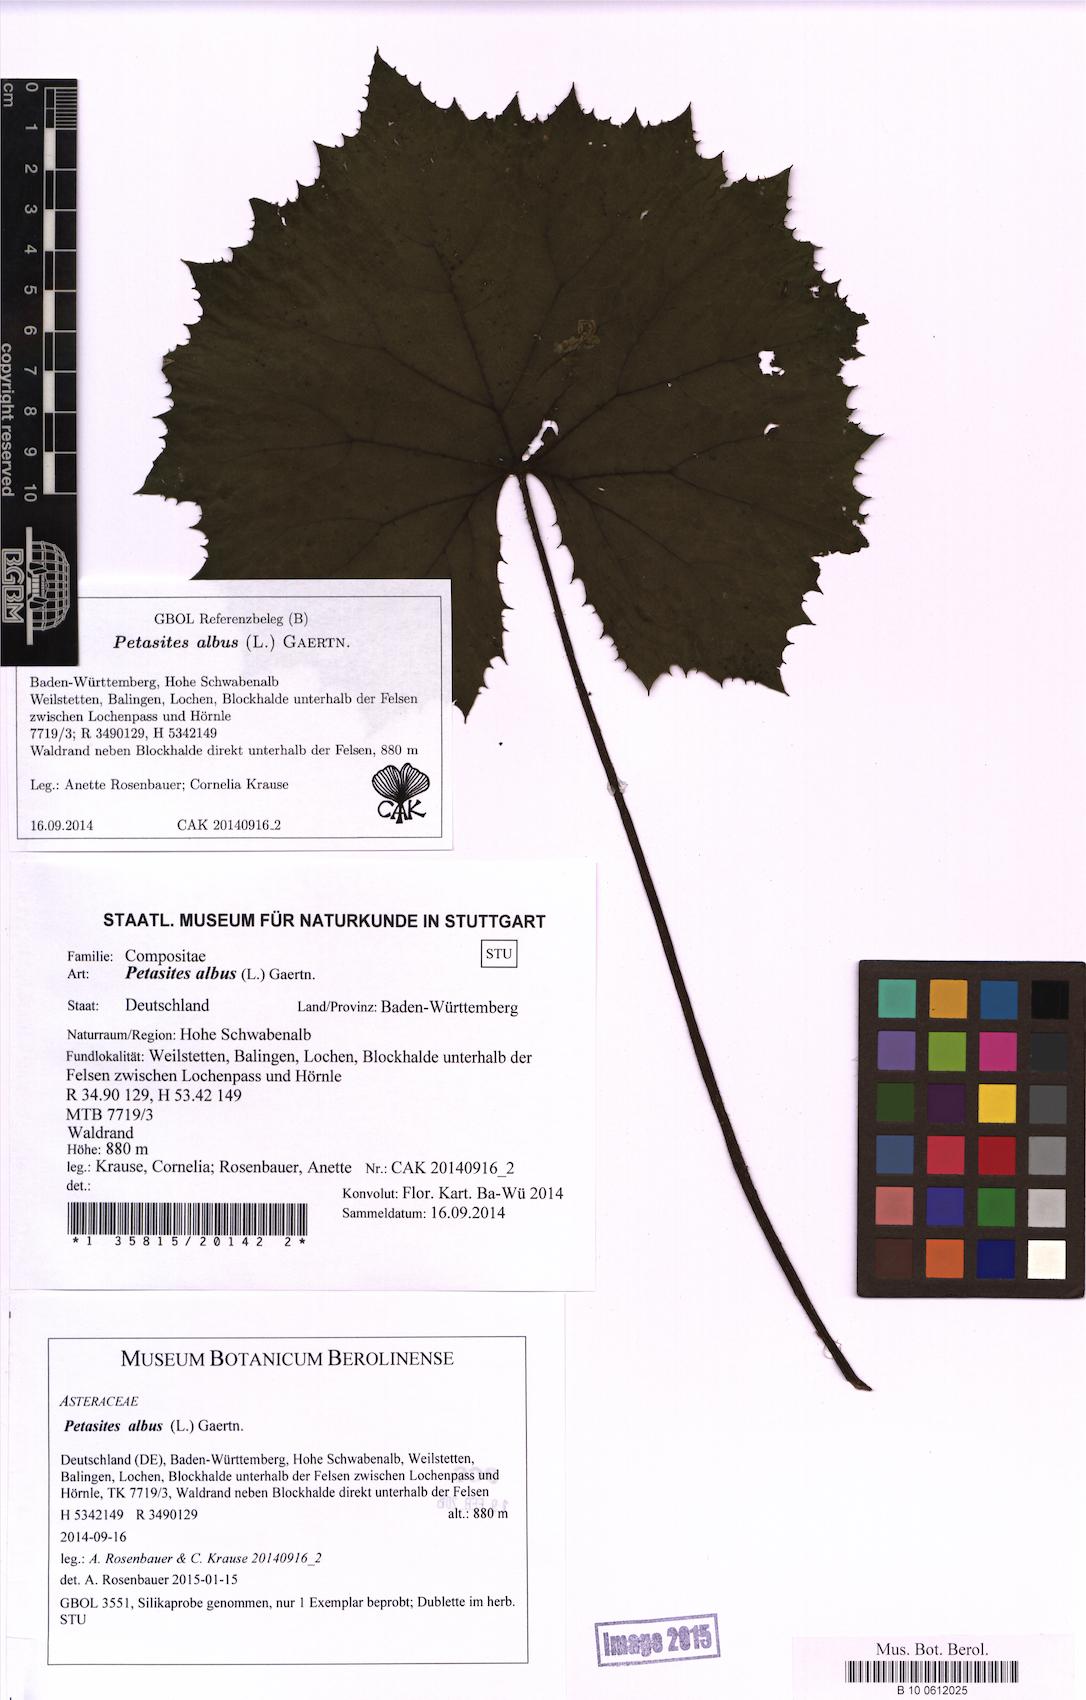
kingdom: Plantae
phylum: Tracheophyta
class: Magnoliopsida
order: Asterales
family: Asteraceae
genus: Petasites
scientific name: Petasites albus
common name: White butterbur
